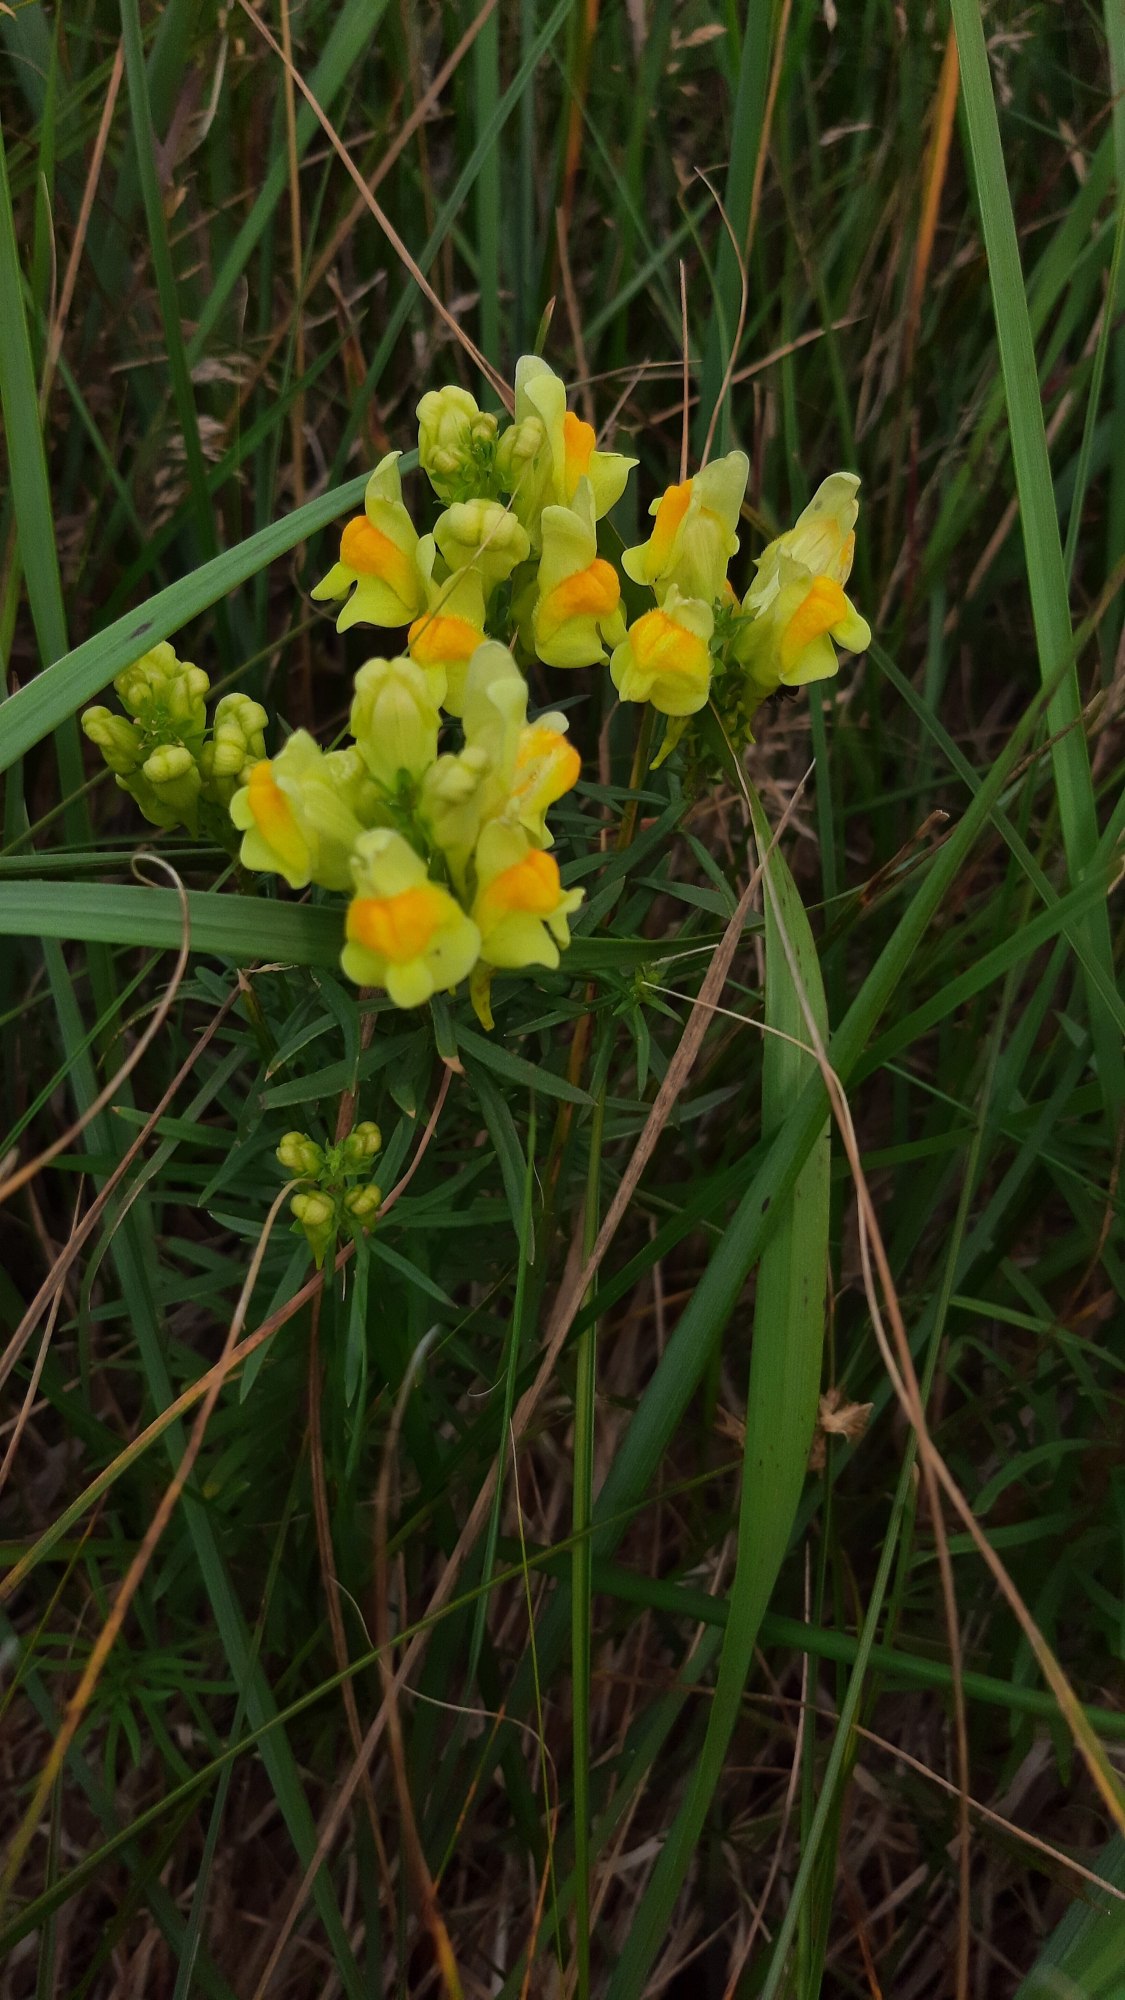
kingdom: Plantae
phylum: Tracheophyta
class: Magnoliopsida
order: Lamiales
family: Plantaginaceae
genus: Linaria
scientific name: Linaria vulgaris
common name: Almindelig torskemund
